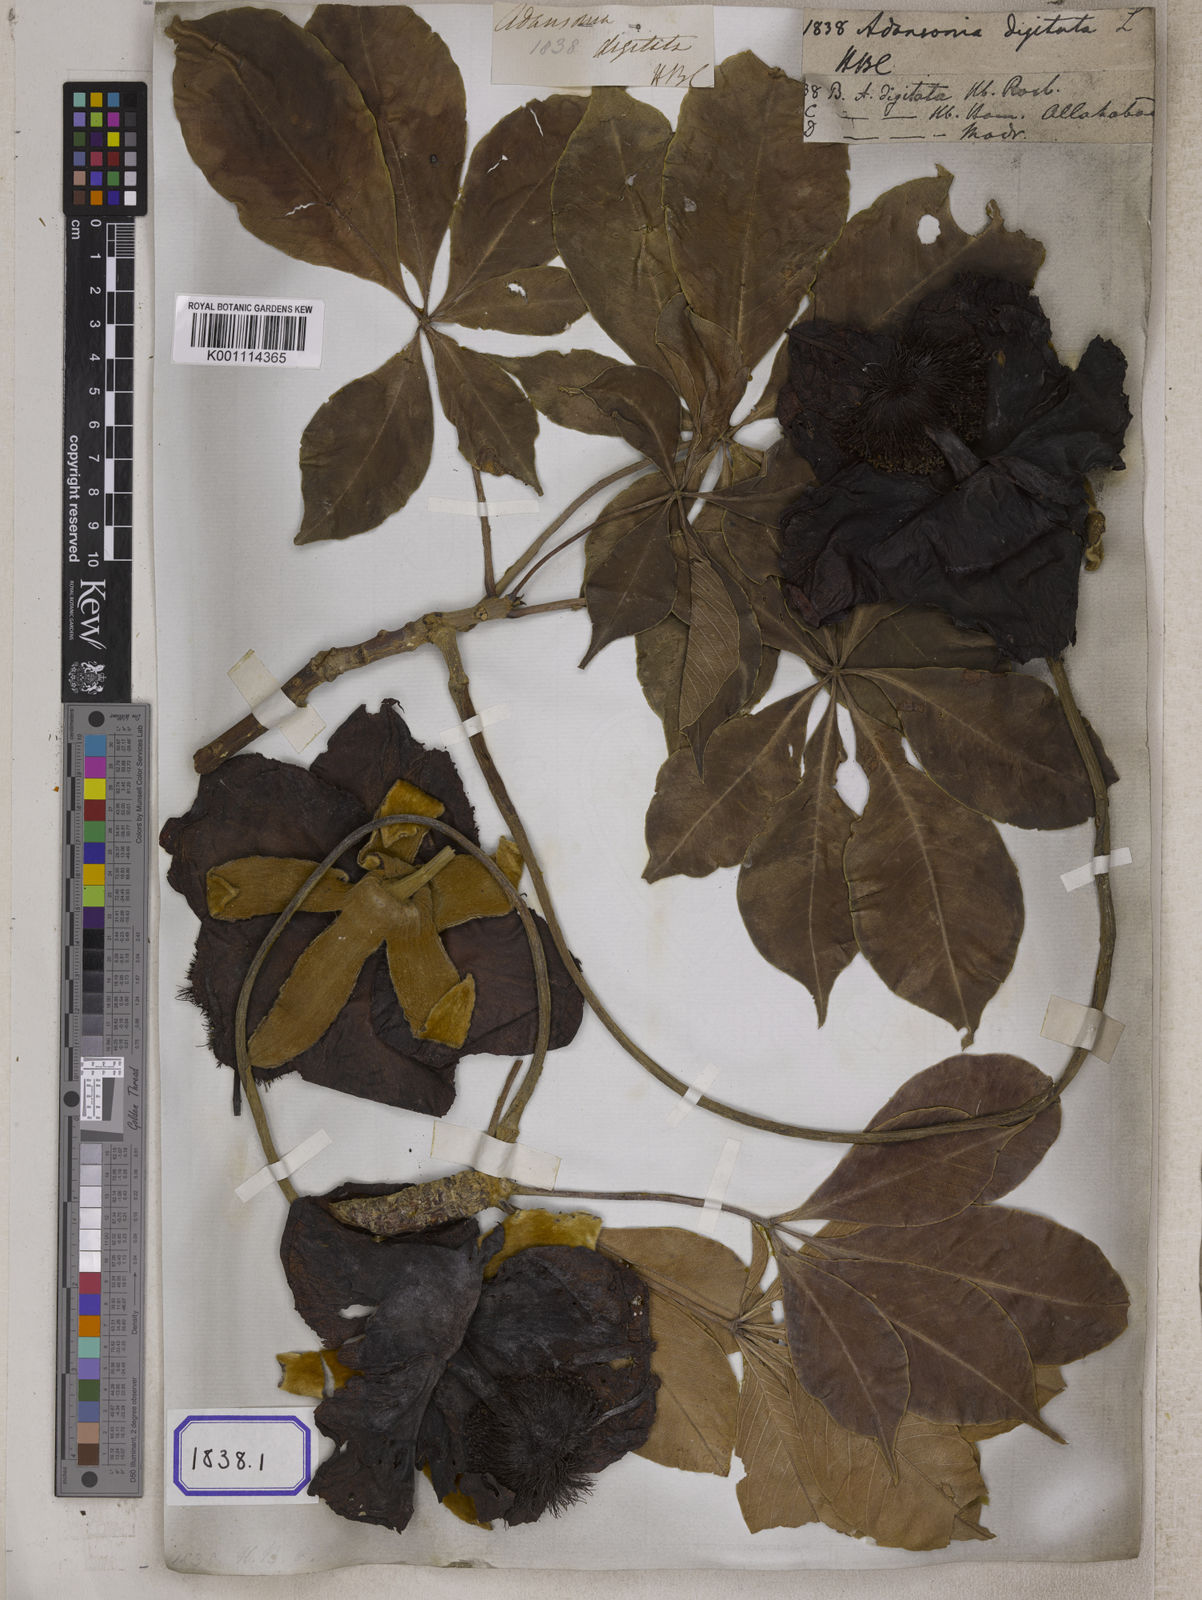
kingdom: Plantae
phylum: Tracheophyta
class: Magnoliopsida
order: Malvales
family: Malvaceae
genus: Adansonia
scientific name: Adansonia digitata
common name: Dead-rat-tree
